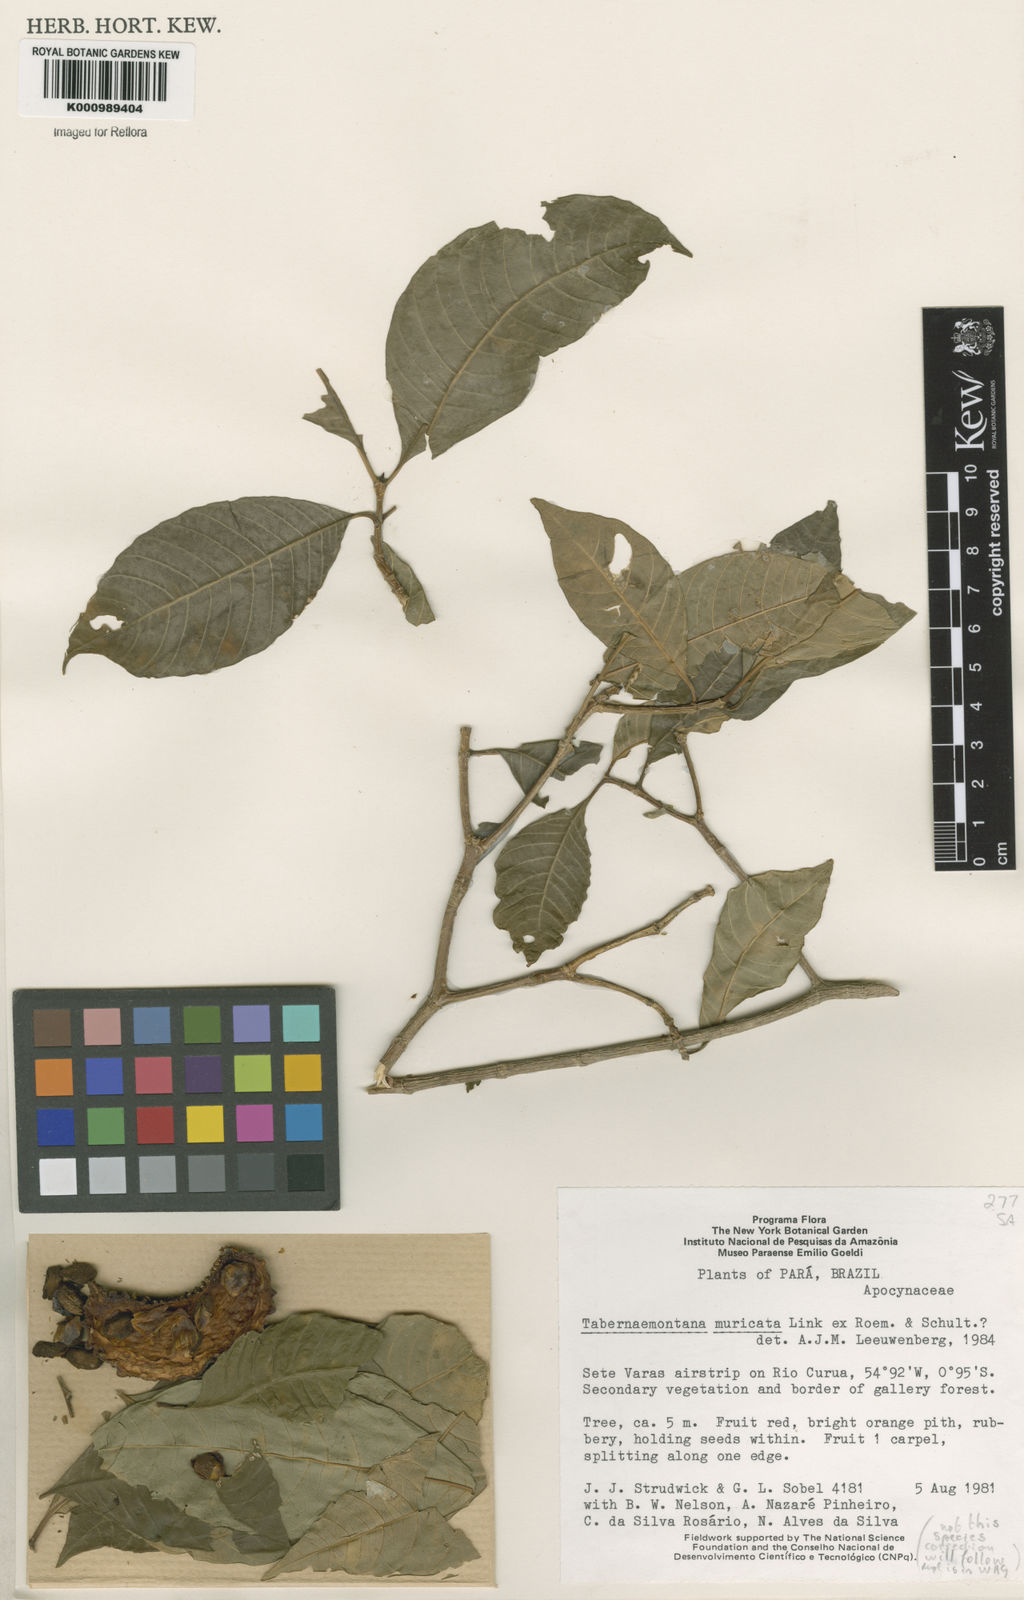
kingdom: Plantae
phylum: Tracheophyta
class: Magnoliopsida
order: Gentianales
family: Apocynaceae
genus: Tabernaemontana
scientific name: Tabernaemontana muricata
